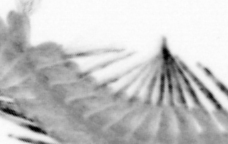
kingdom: Animalia
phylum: Annelida
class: Polychaeta
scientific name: Polychaeta
